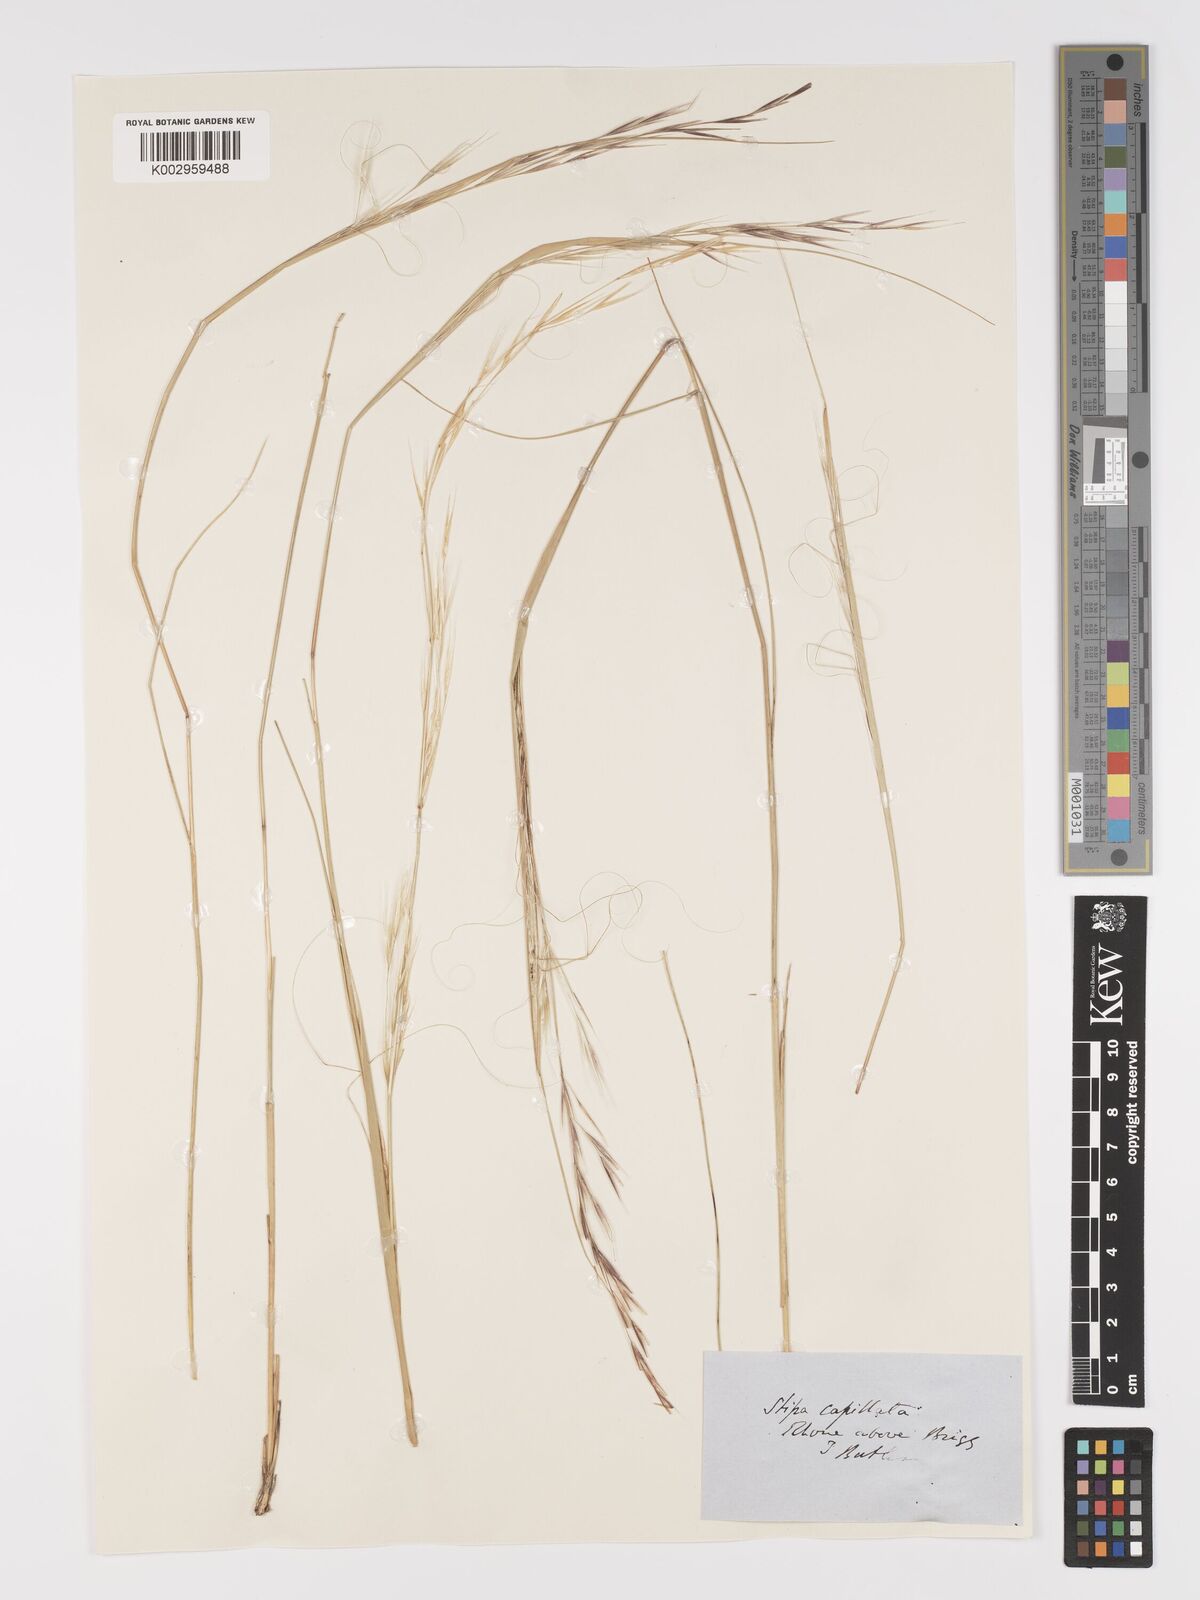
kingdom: Plantae
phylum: Tracheophyta
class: Liliopsida
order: Poales
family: Poaceae
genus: Stipa
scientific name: Stipa capillata
